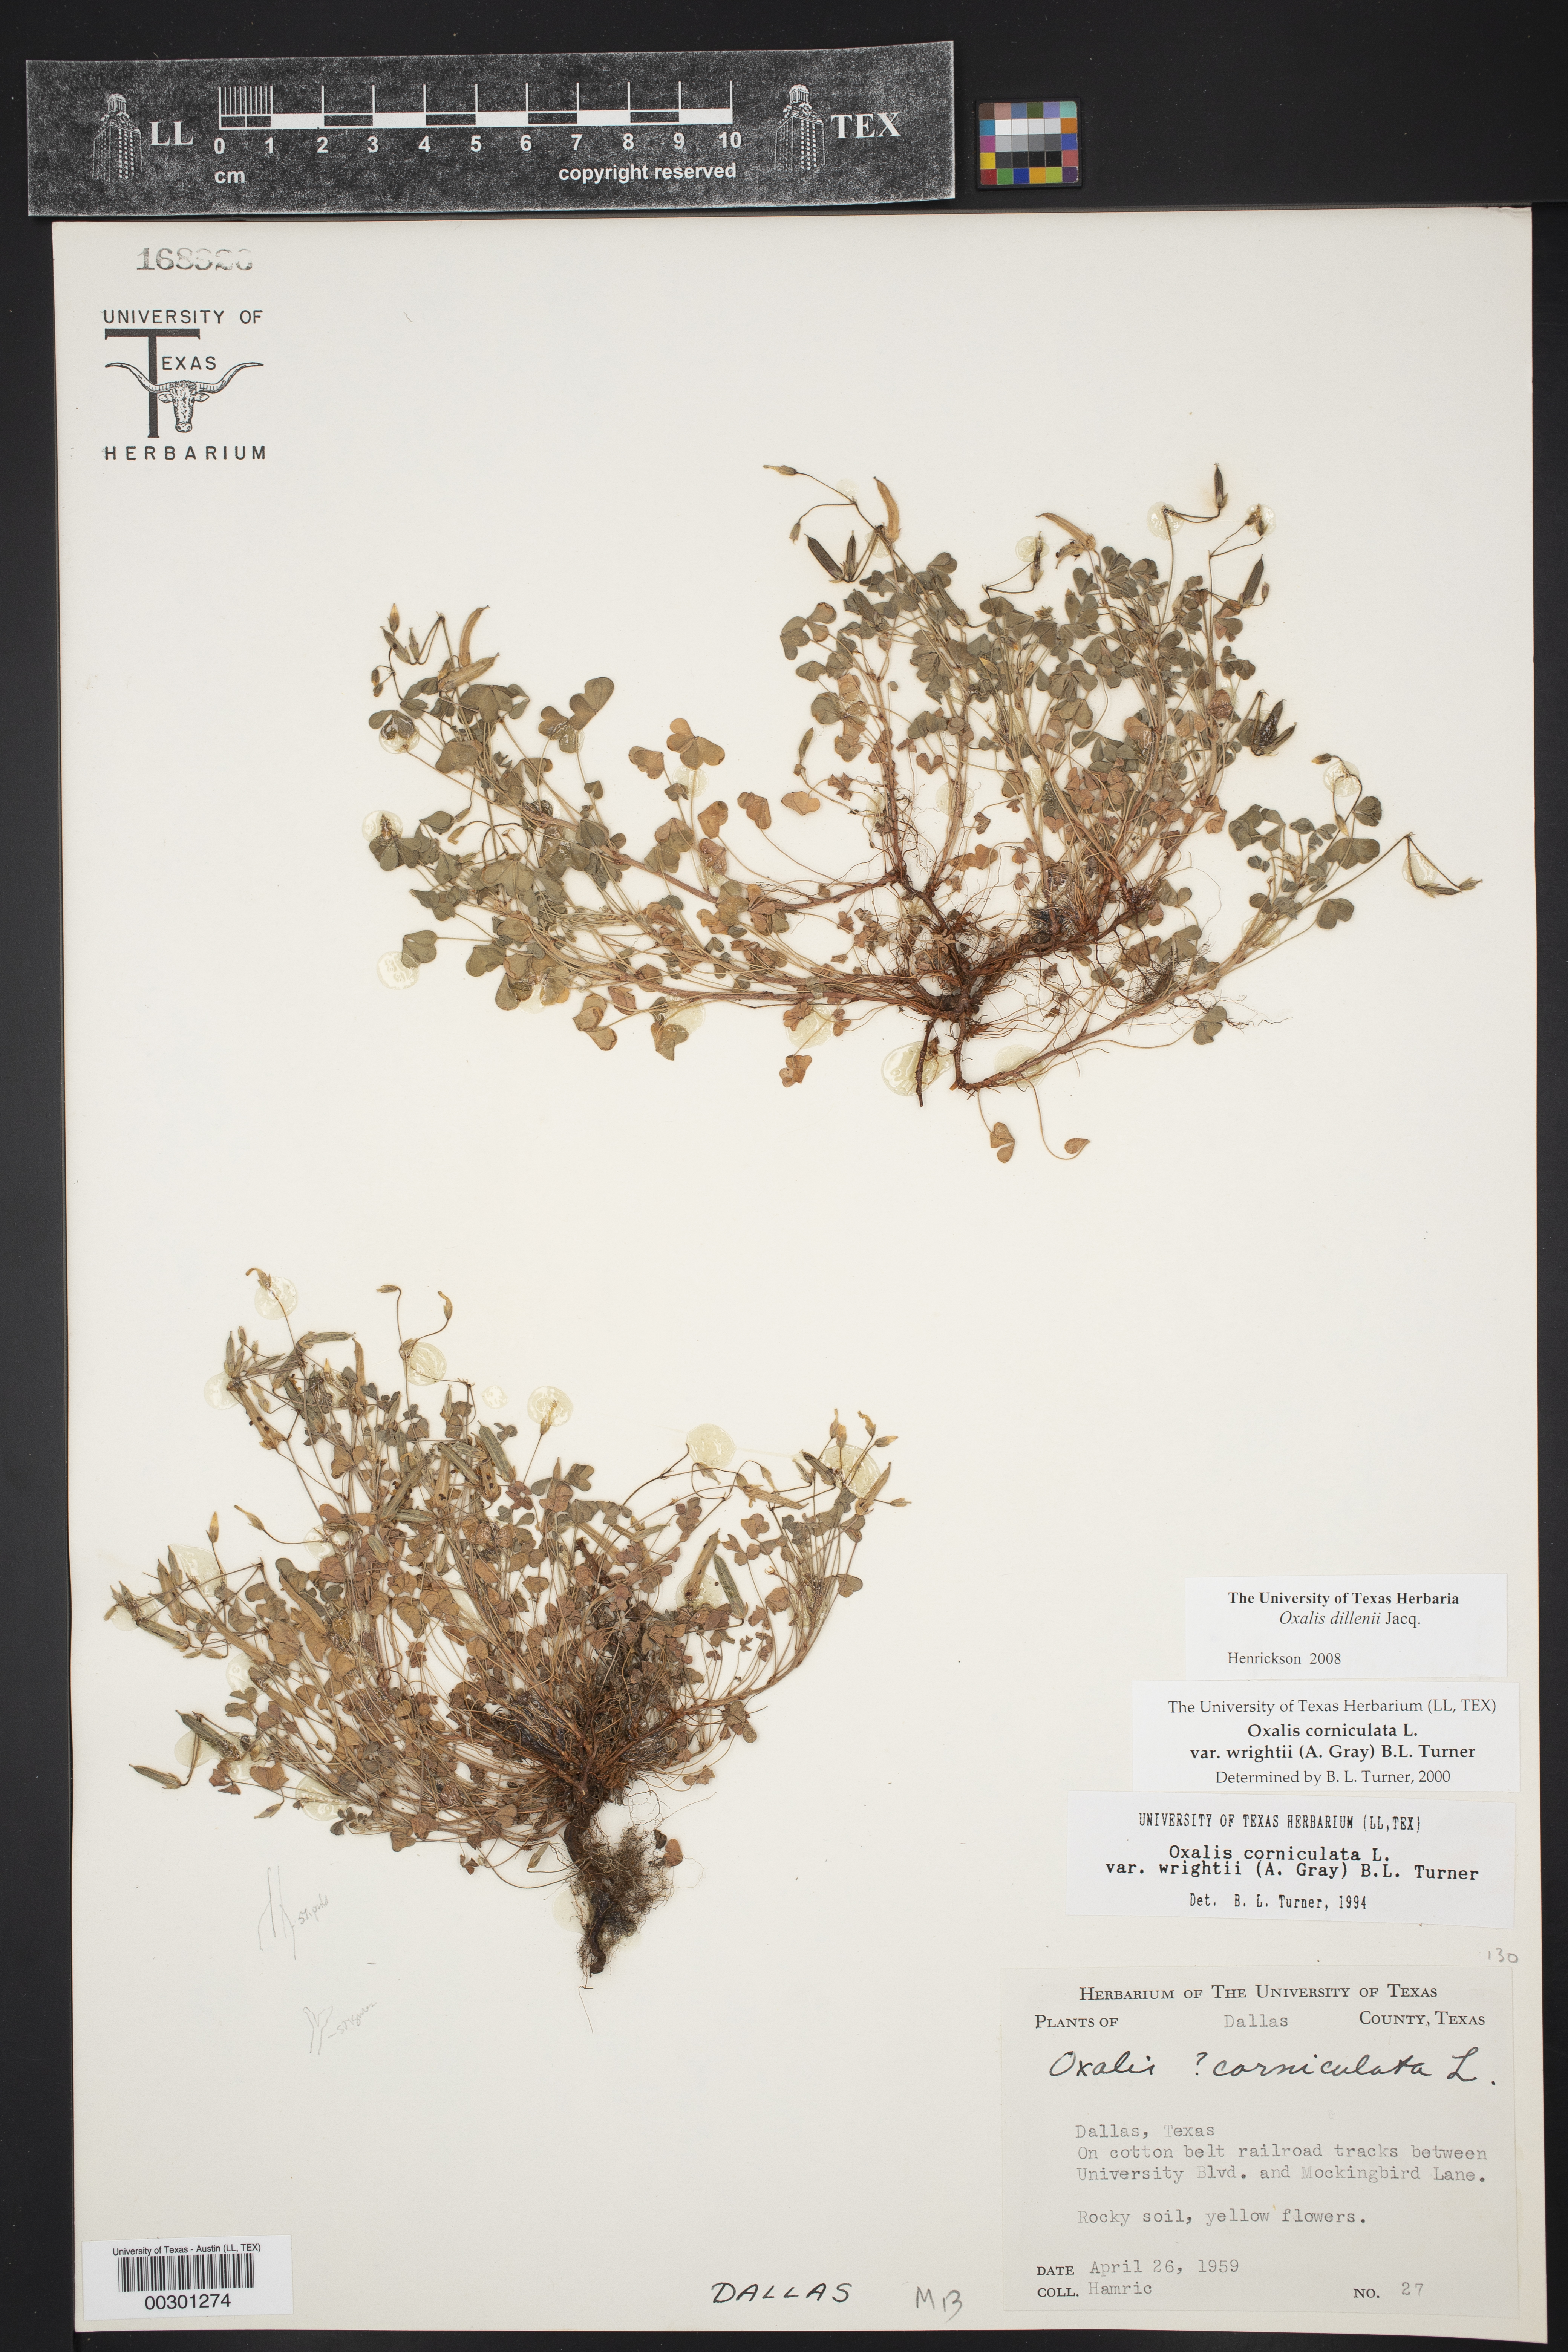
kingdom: Plantae
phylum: Tracheophyta
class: Magnoliopsida
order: Oxalidales
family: Oxalidaceae
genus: Oxalis
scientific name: Oxalis dillenii
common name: Sussex yellow-sorrel
